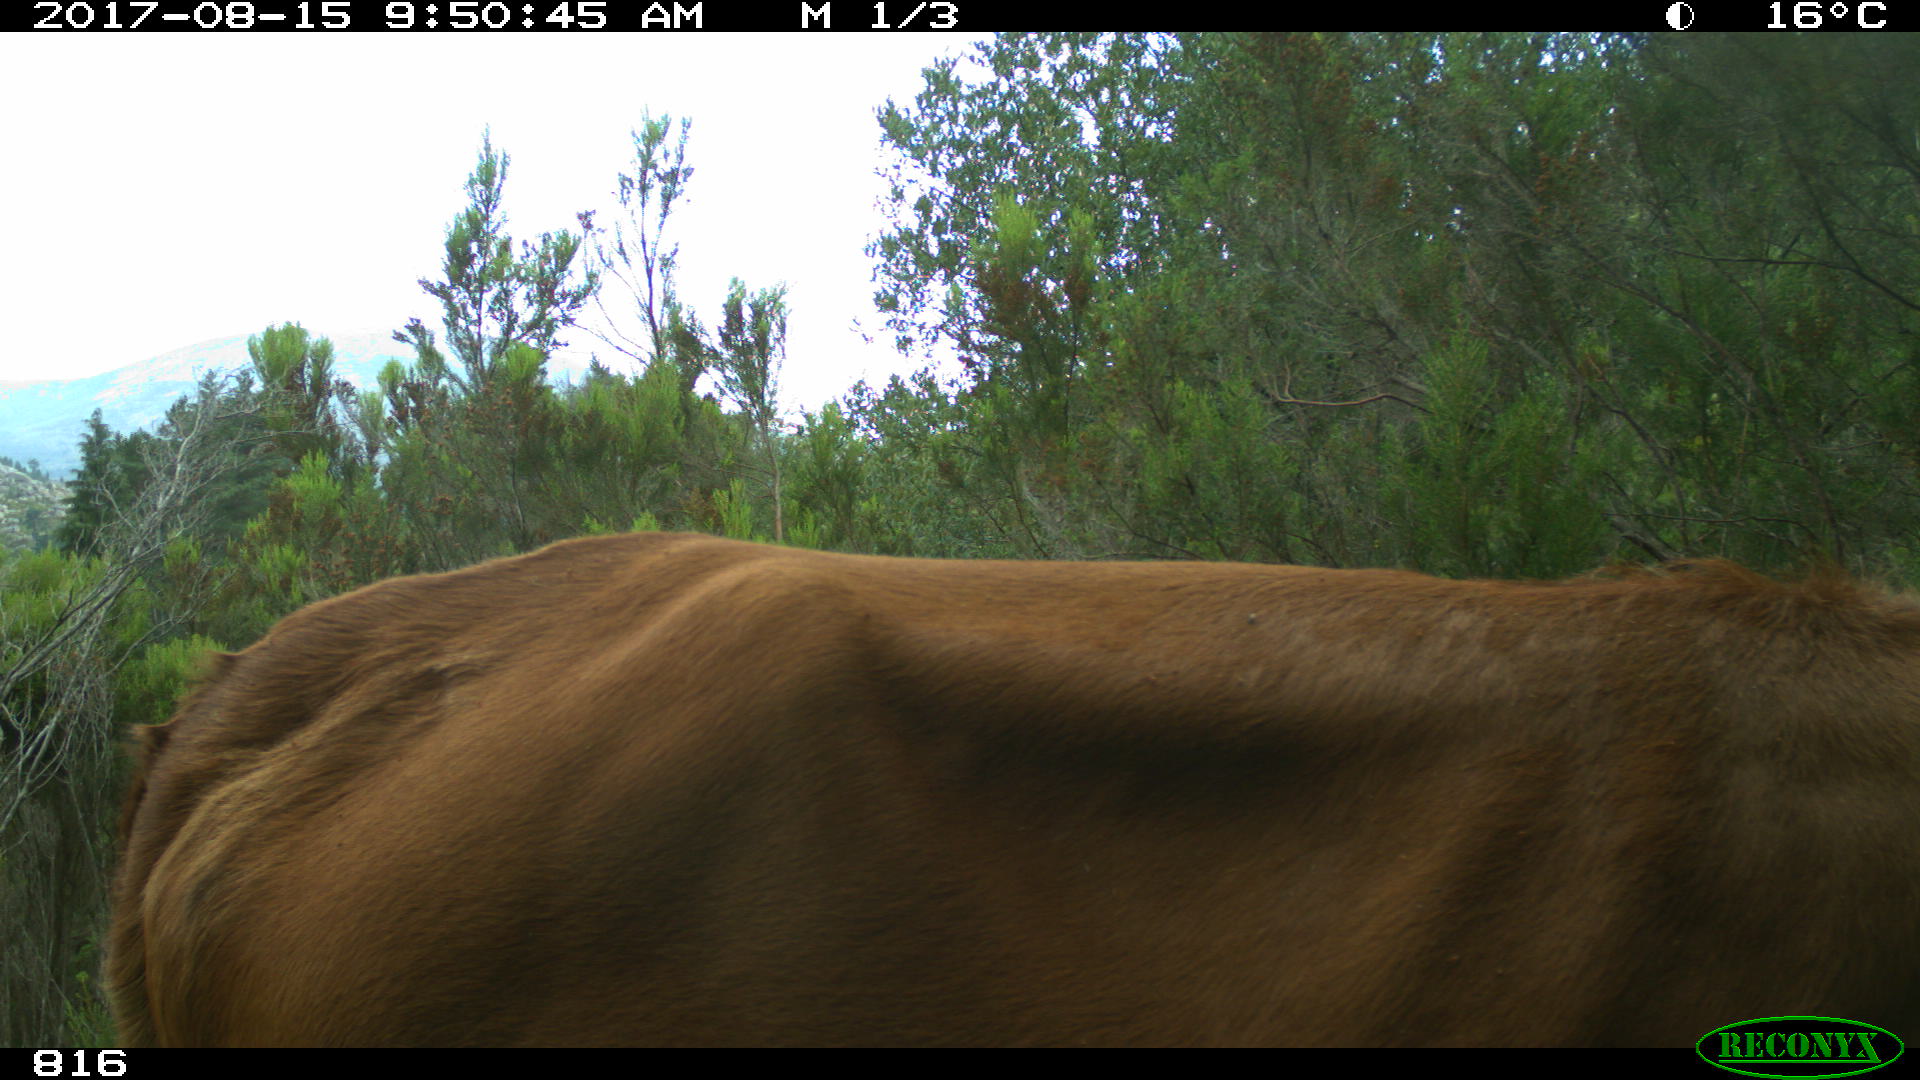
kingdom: Animalia
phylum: Chordata
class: Mammalia
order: Artiodactyla
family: Bovidae
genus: Bos
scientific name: Bos taurus
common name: Domesticated cattle
